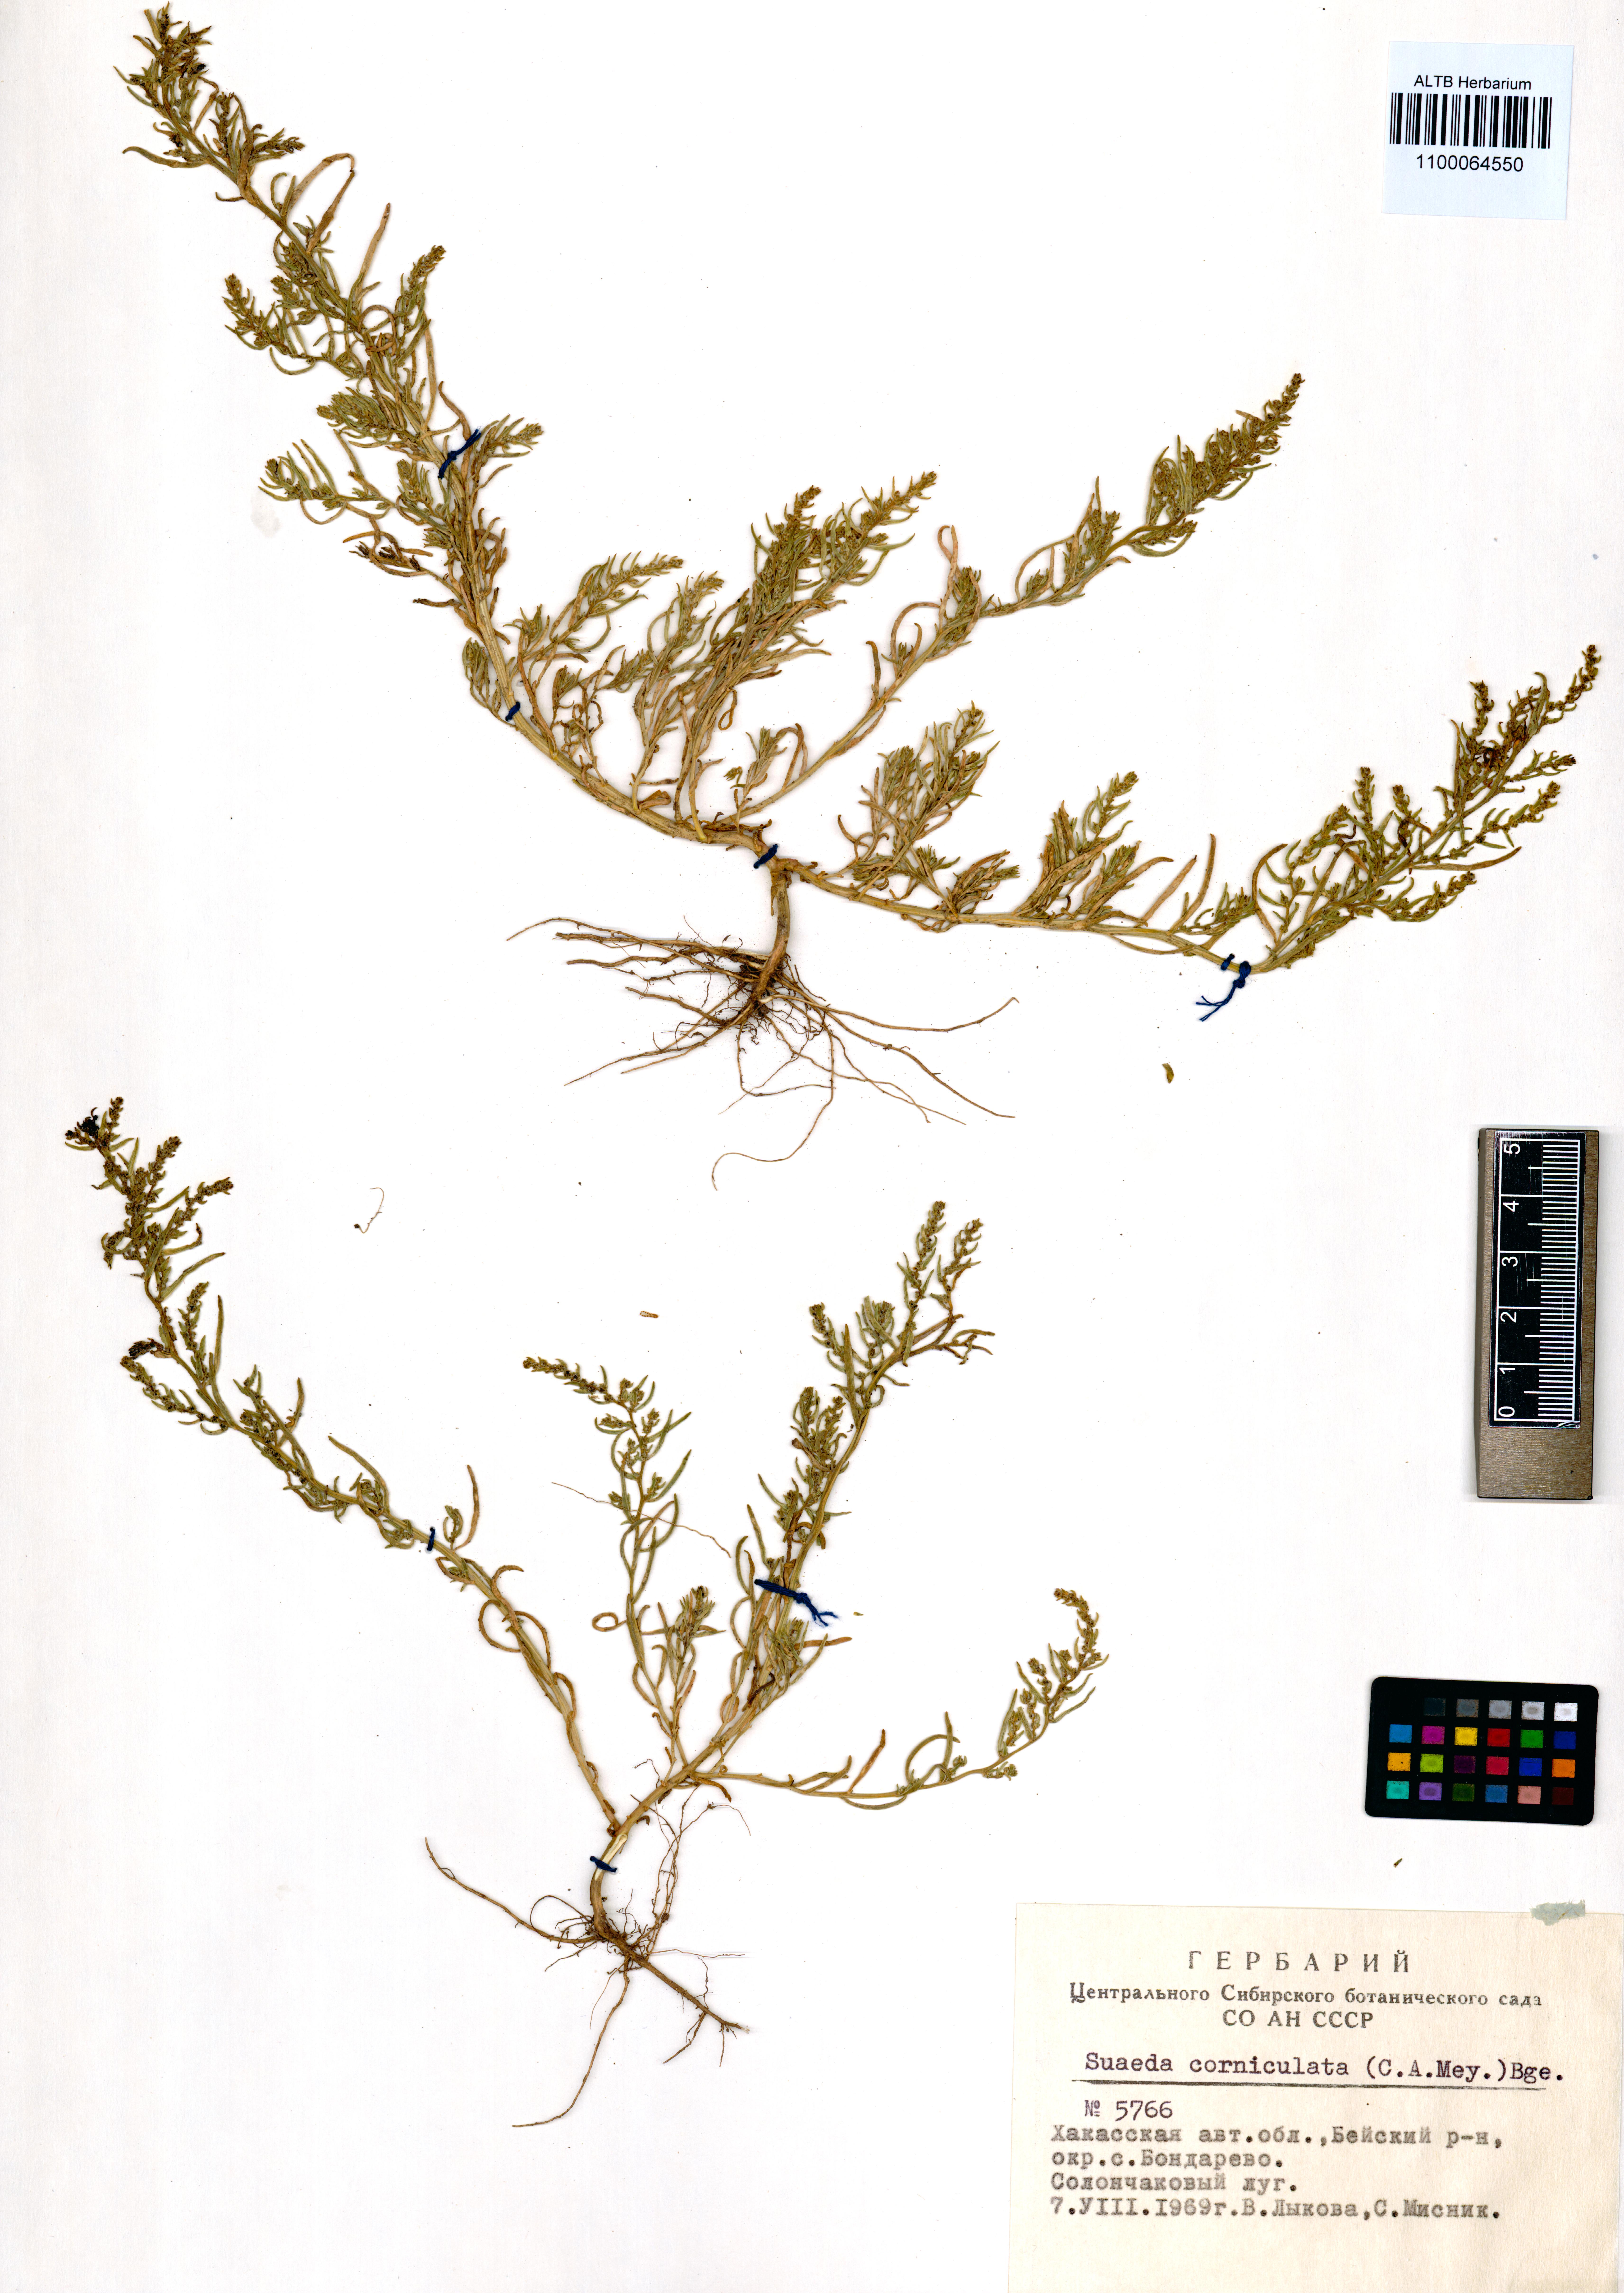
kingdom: Plantae
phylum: Tracheophyta
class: Magnoliopsida
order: Caryophyllales
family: Amaranthaceae
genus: Suaeda
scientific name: Suaeda corniculata
